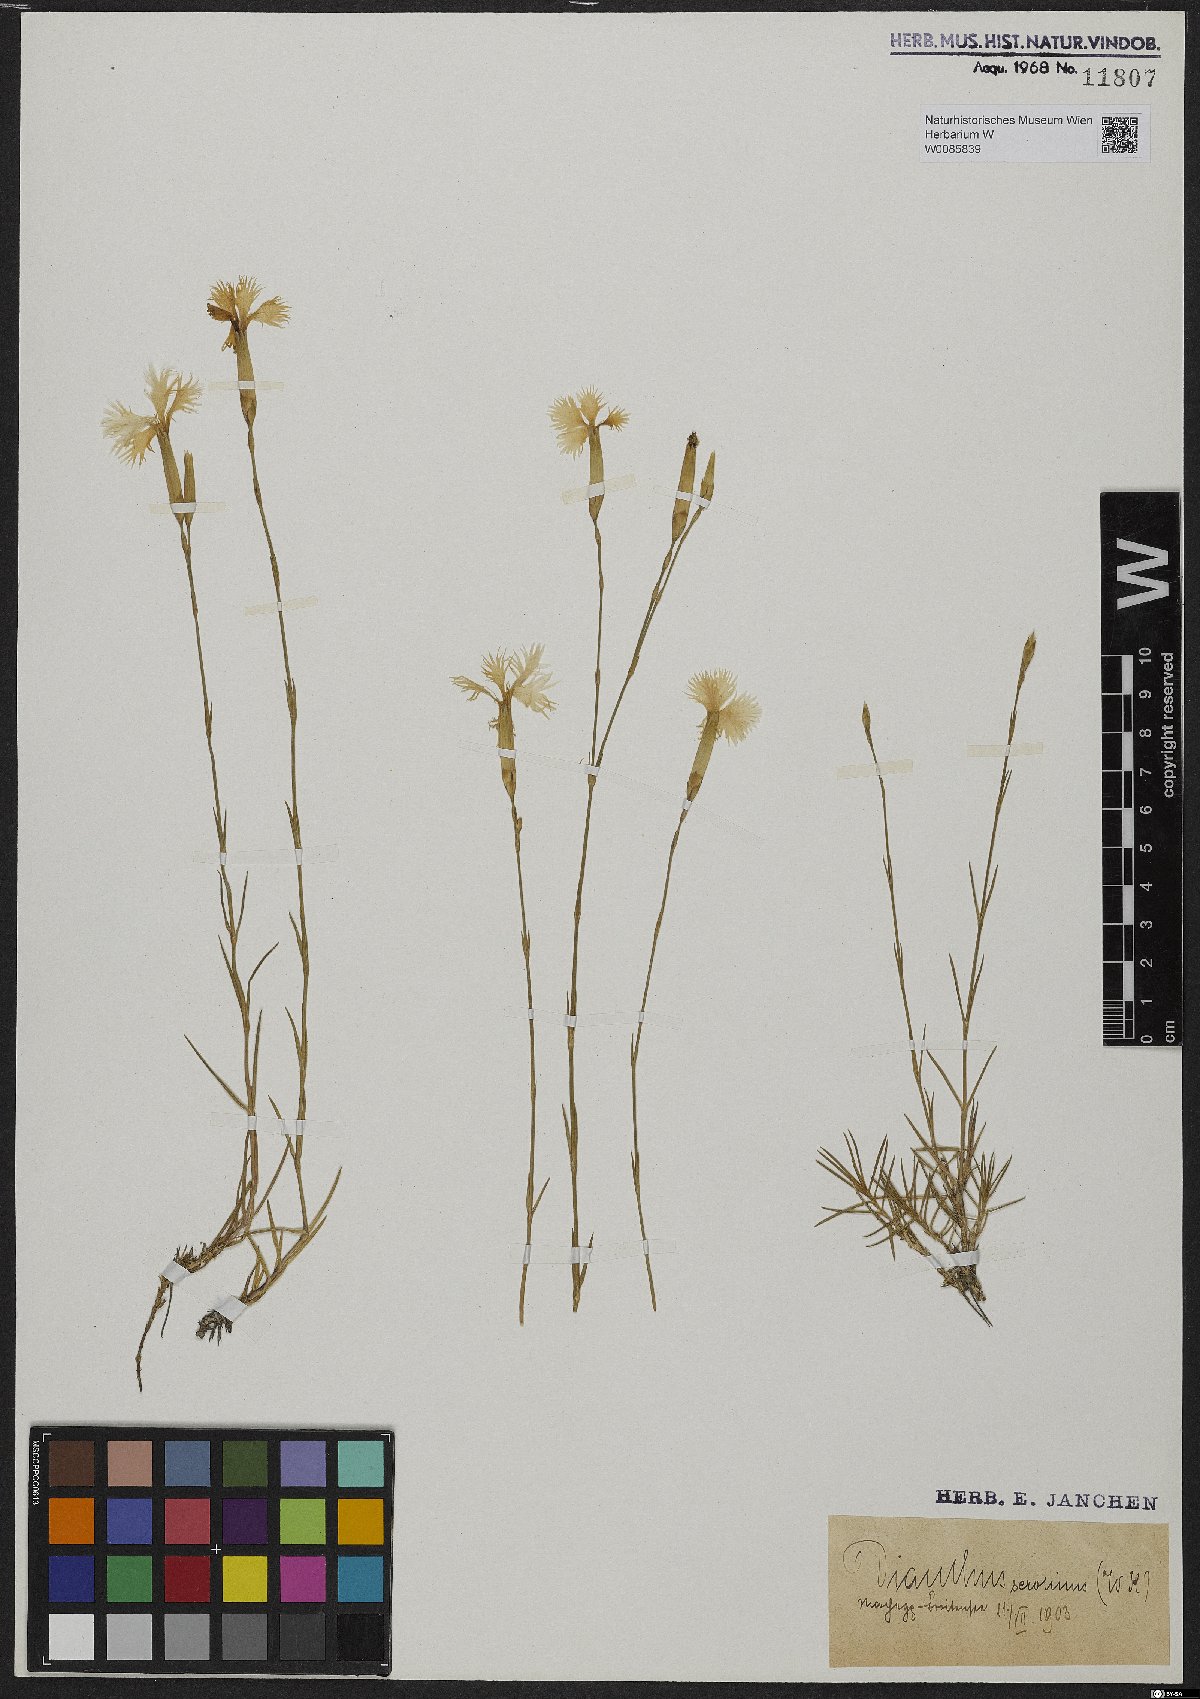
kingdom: Plantae
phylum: Tracheophyta
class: Magnoliopsida
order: Caryophyllales
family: Caryophyllaceae
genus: Dianthus
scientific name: Dianthus serotinus
